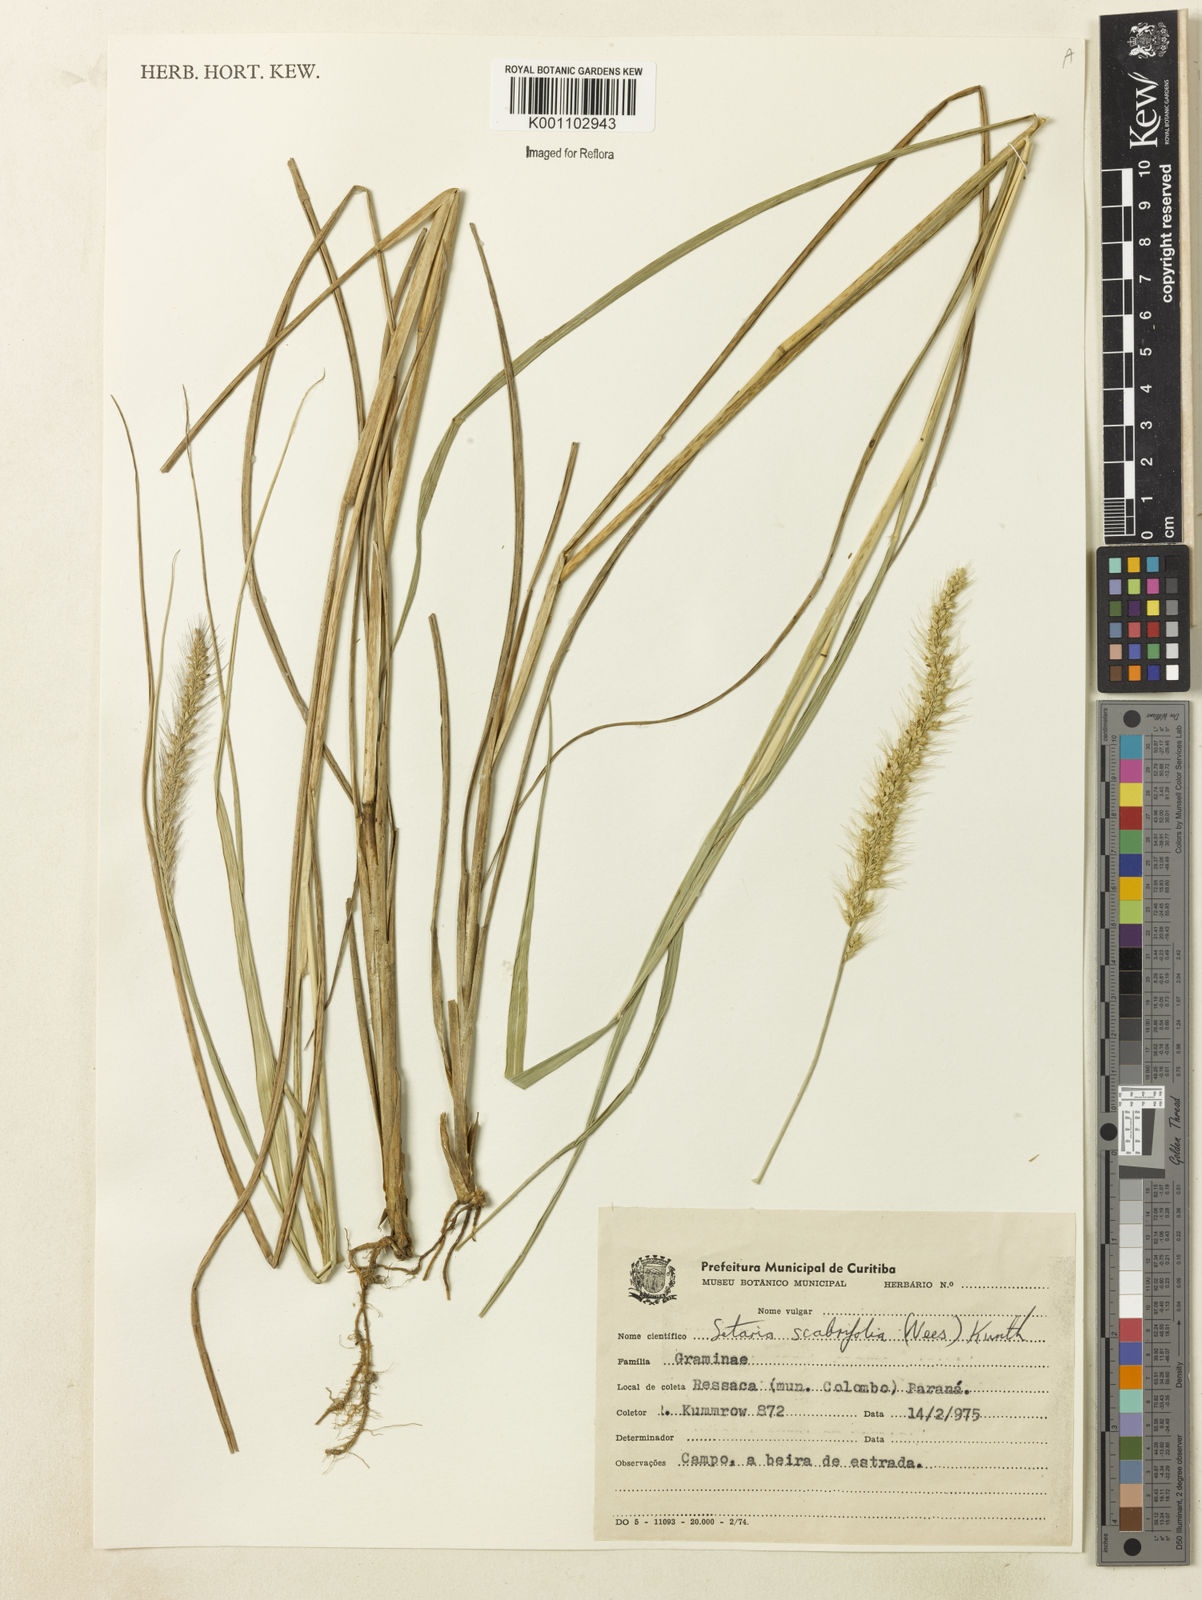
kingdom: Plantae
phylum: Tracheophyta
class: Liliopsida
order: Poales
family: Poaceae
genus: Setaria
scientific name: Setaria globulifera
